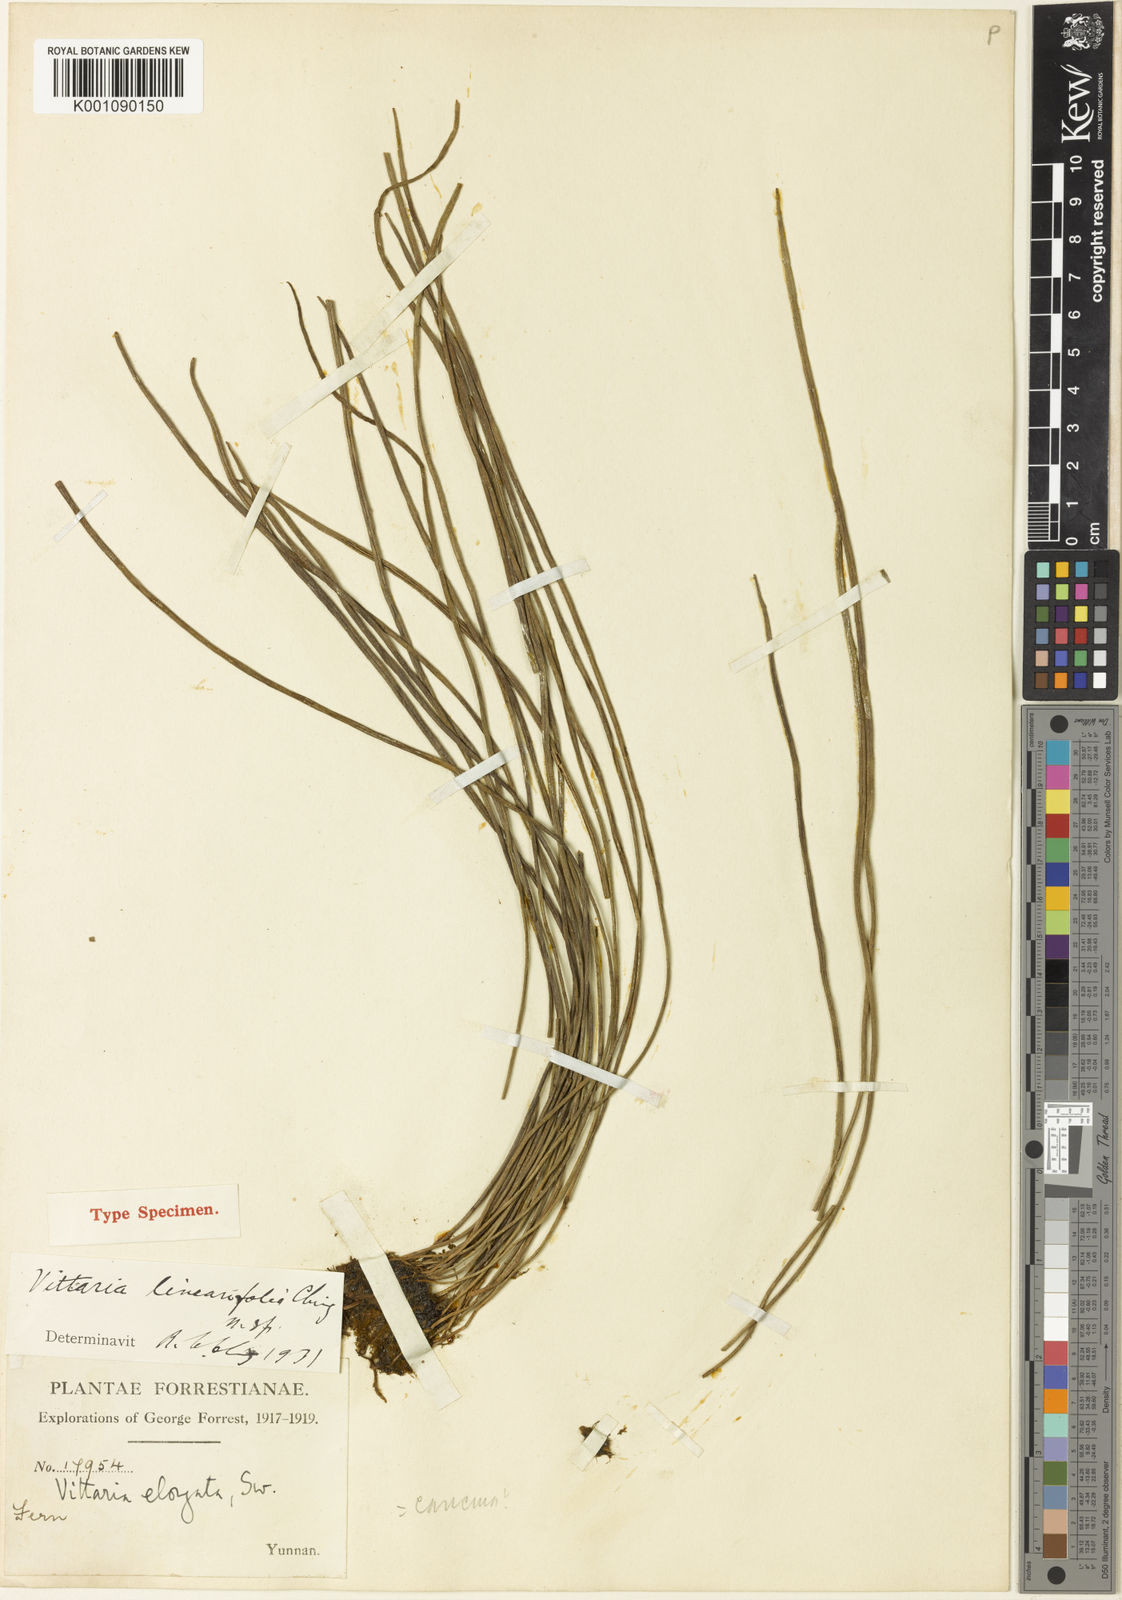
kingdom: Plantae
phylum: Tracheophyta
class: Polypodiopsida
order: Polypodiales
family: Pteridaceae
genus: Haplopteris
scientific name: Haplopteris linearifolia
